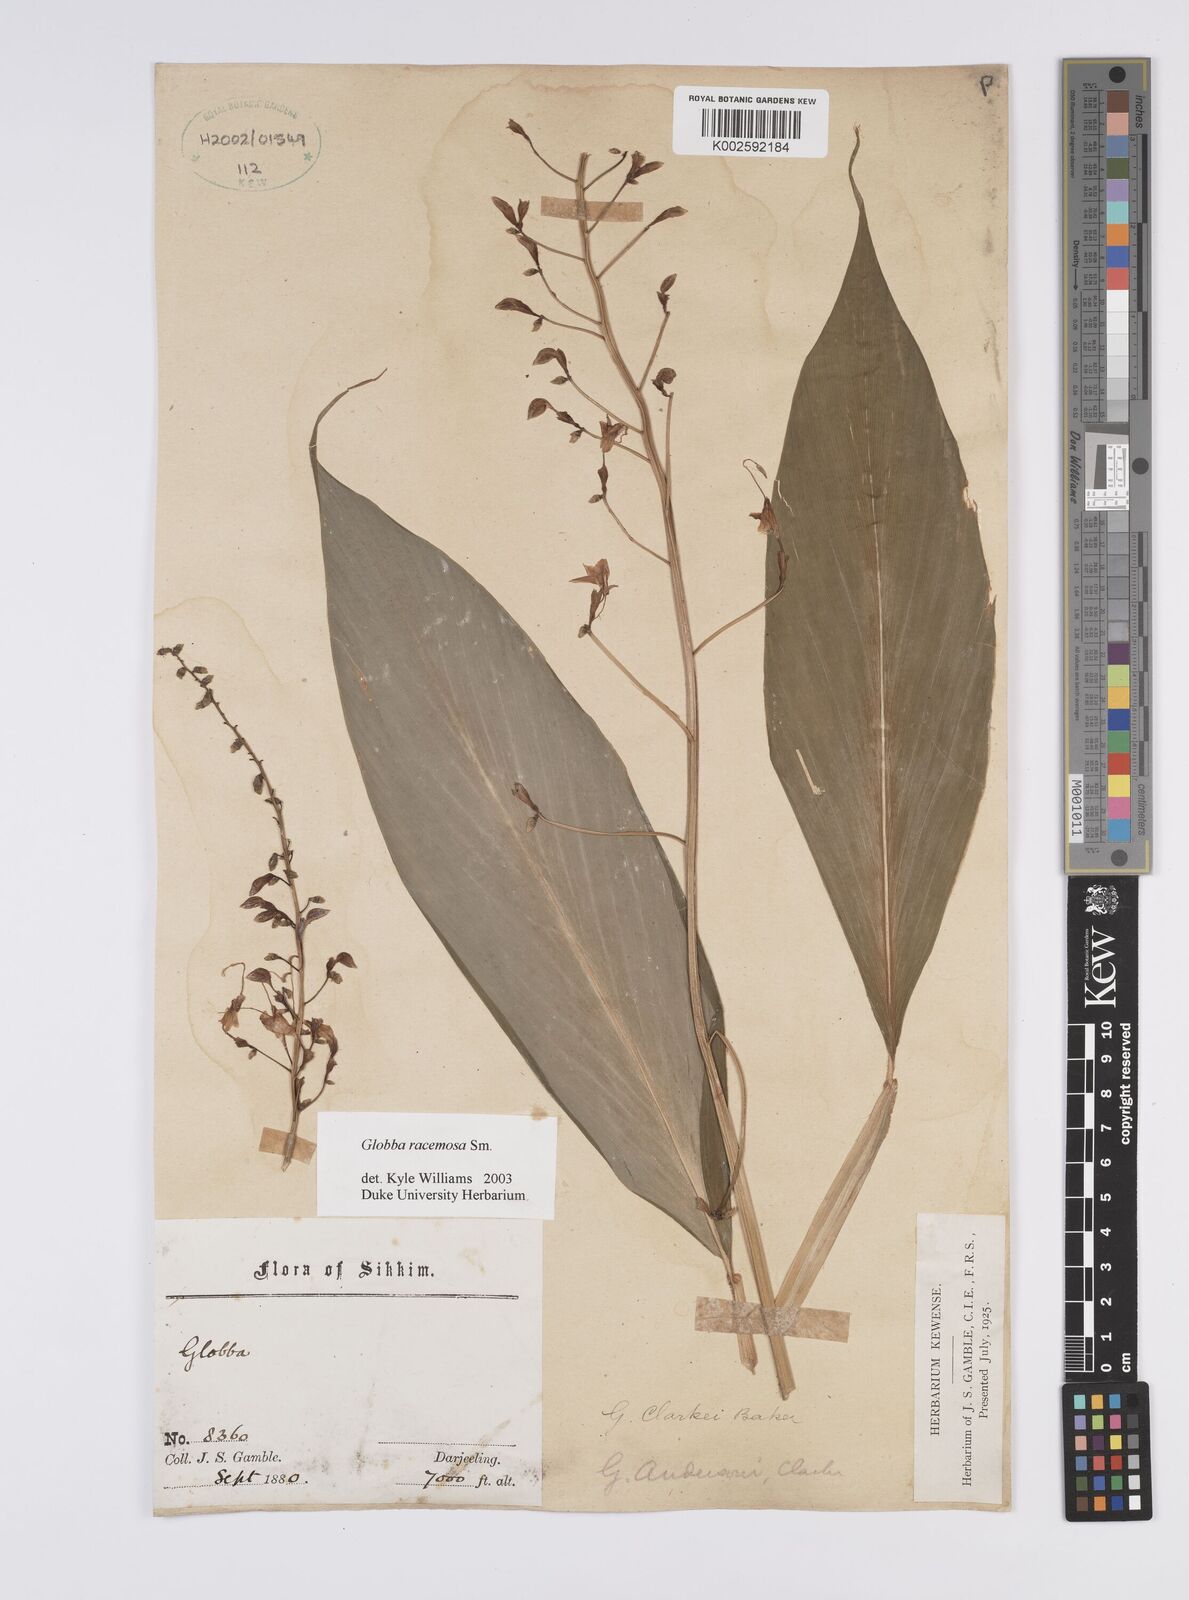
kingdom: Plantae
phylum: Tracheophyta
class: Liliopsida
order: Zingiberales
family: Zingiberaceae
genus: Globba
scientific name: Globba racemosa
